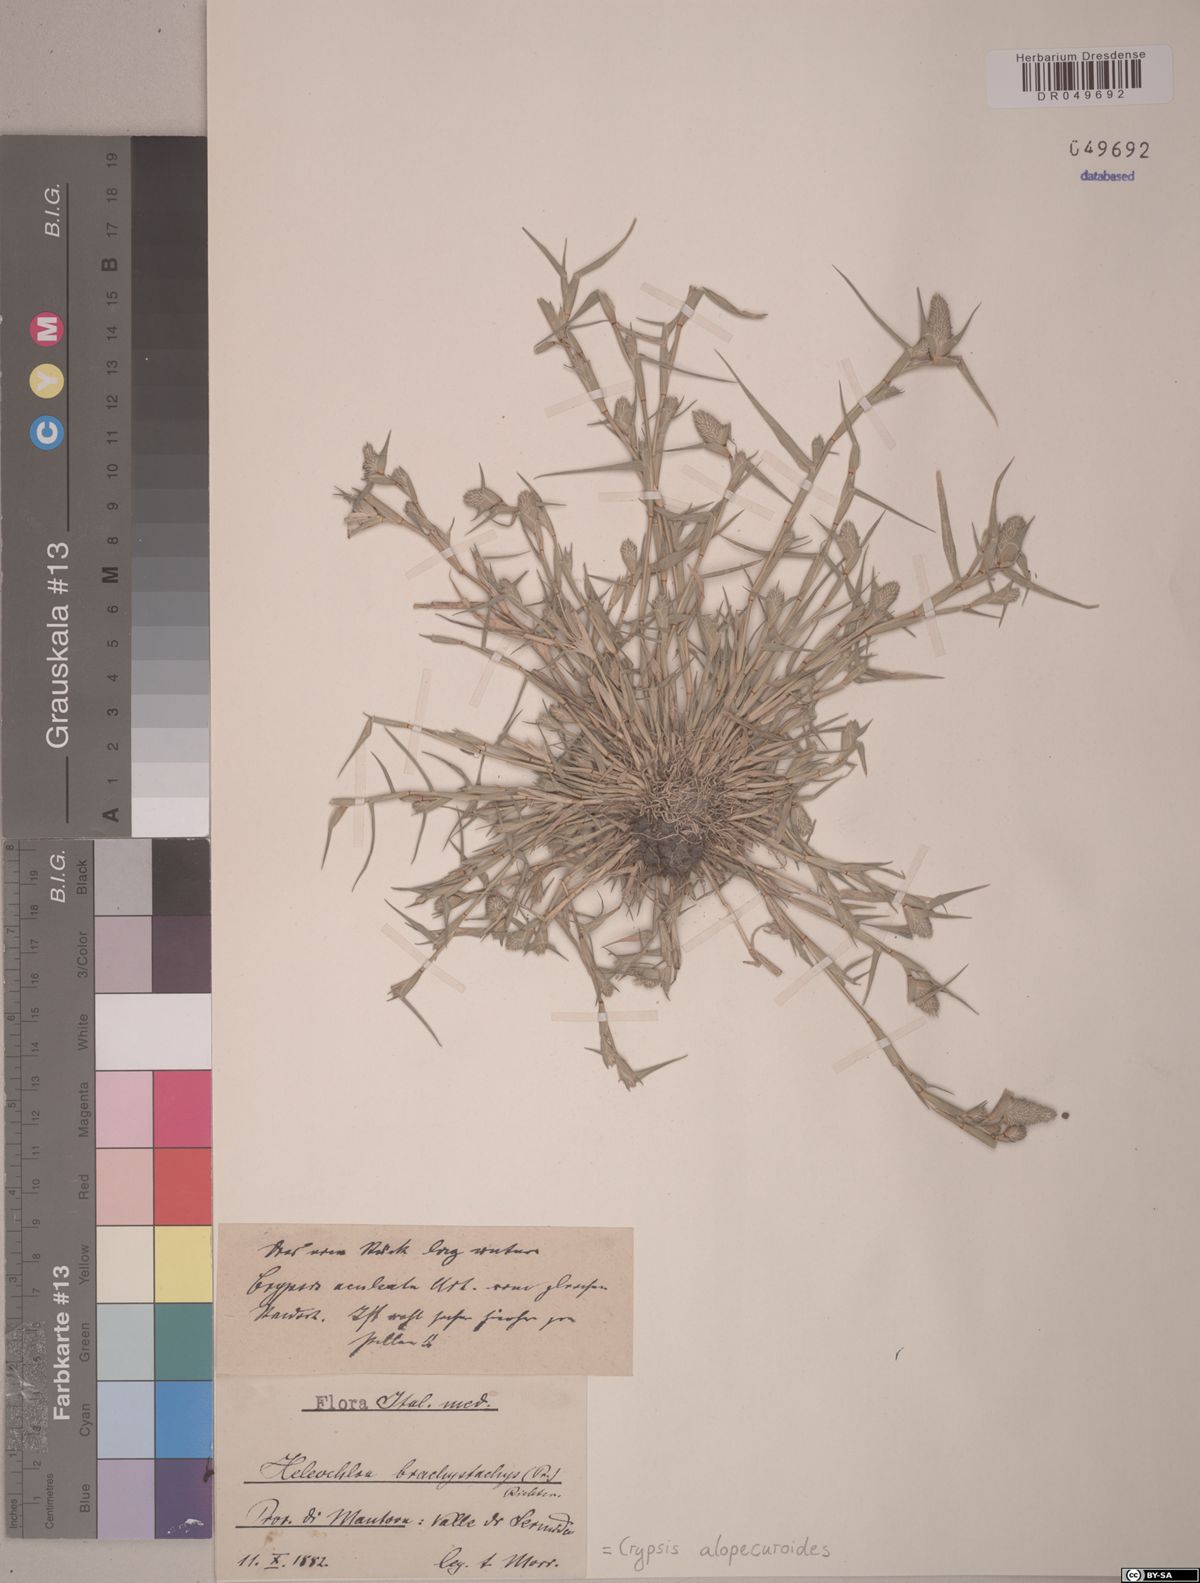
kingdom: Plantae
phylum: Tracheophyta
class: Liliopsida
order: Poales
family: Poaceae
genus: Sporobolus
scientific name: Sporobolus alopecuroides
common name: Foxtail pricklegrass
